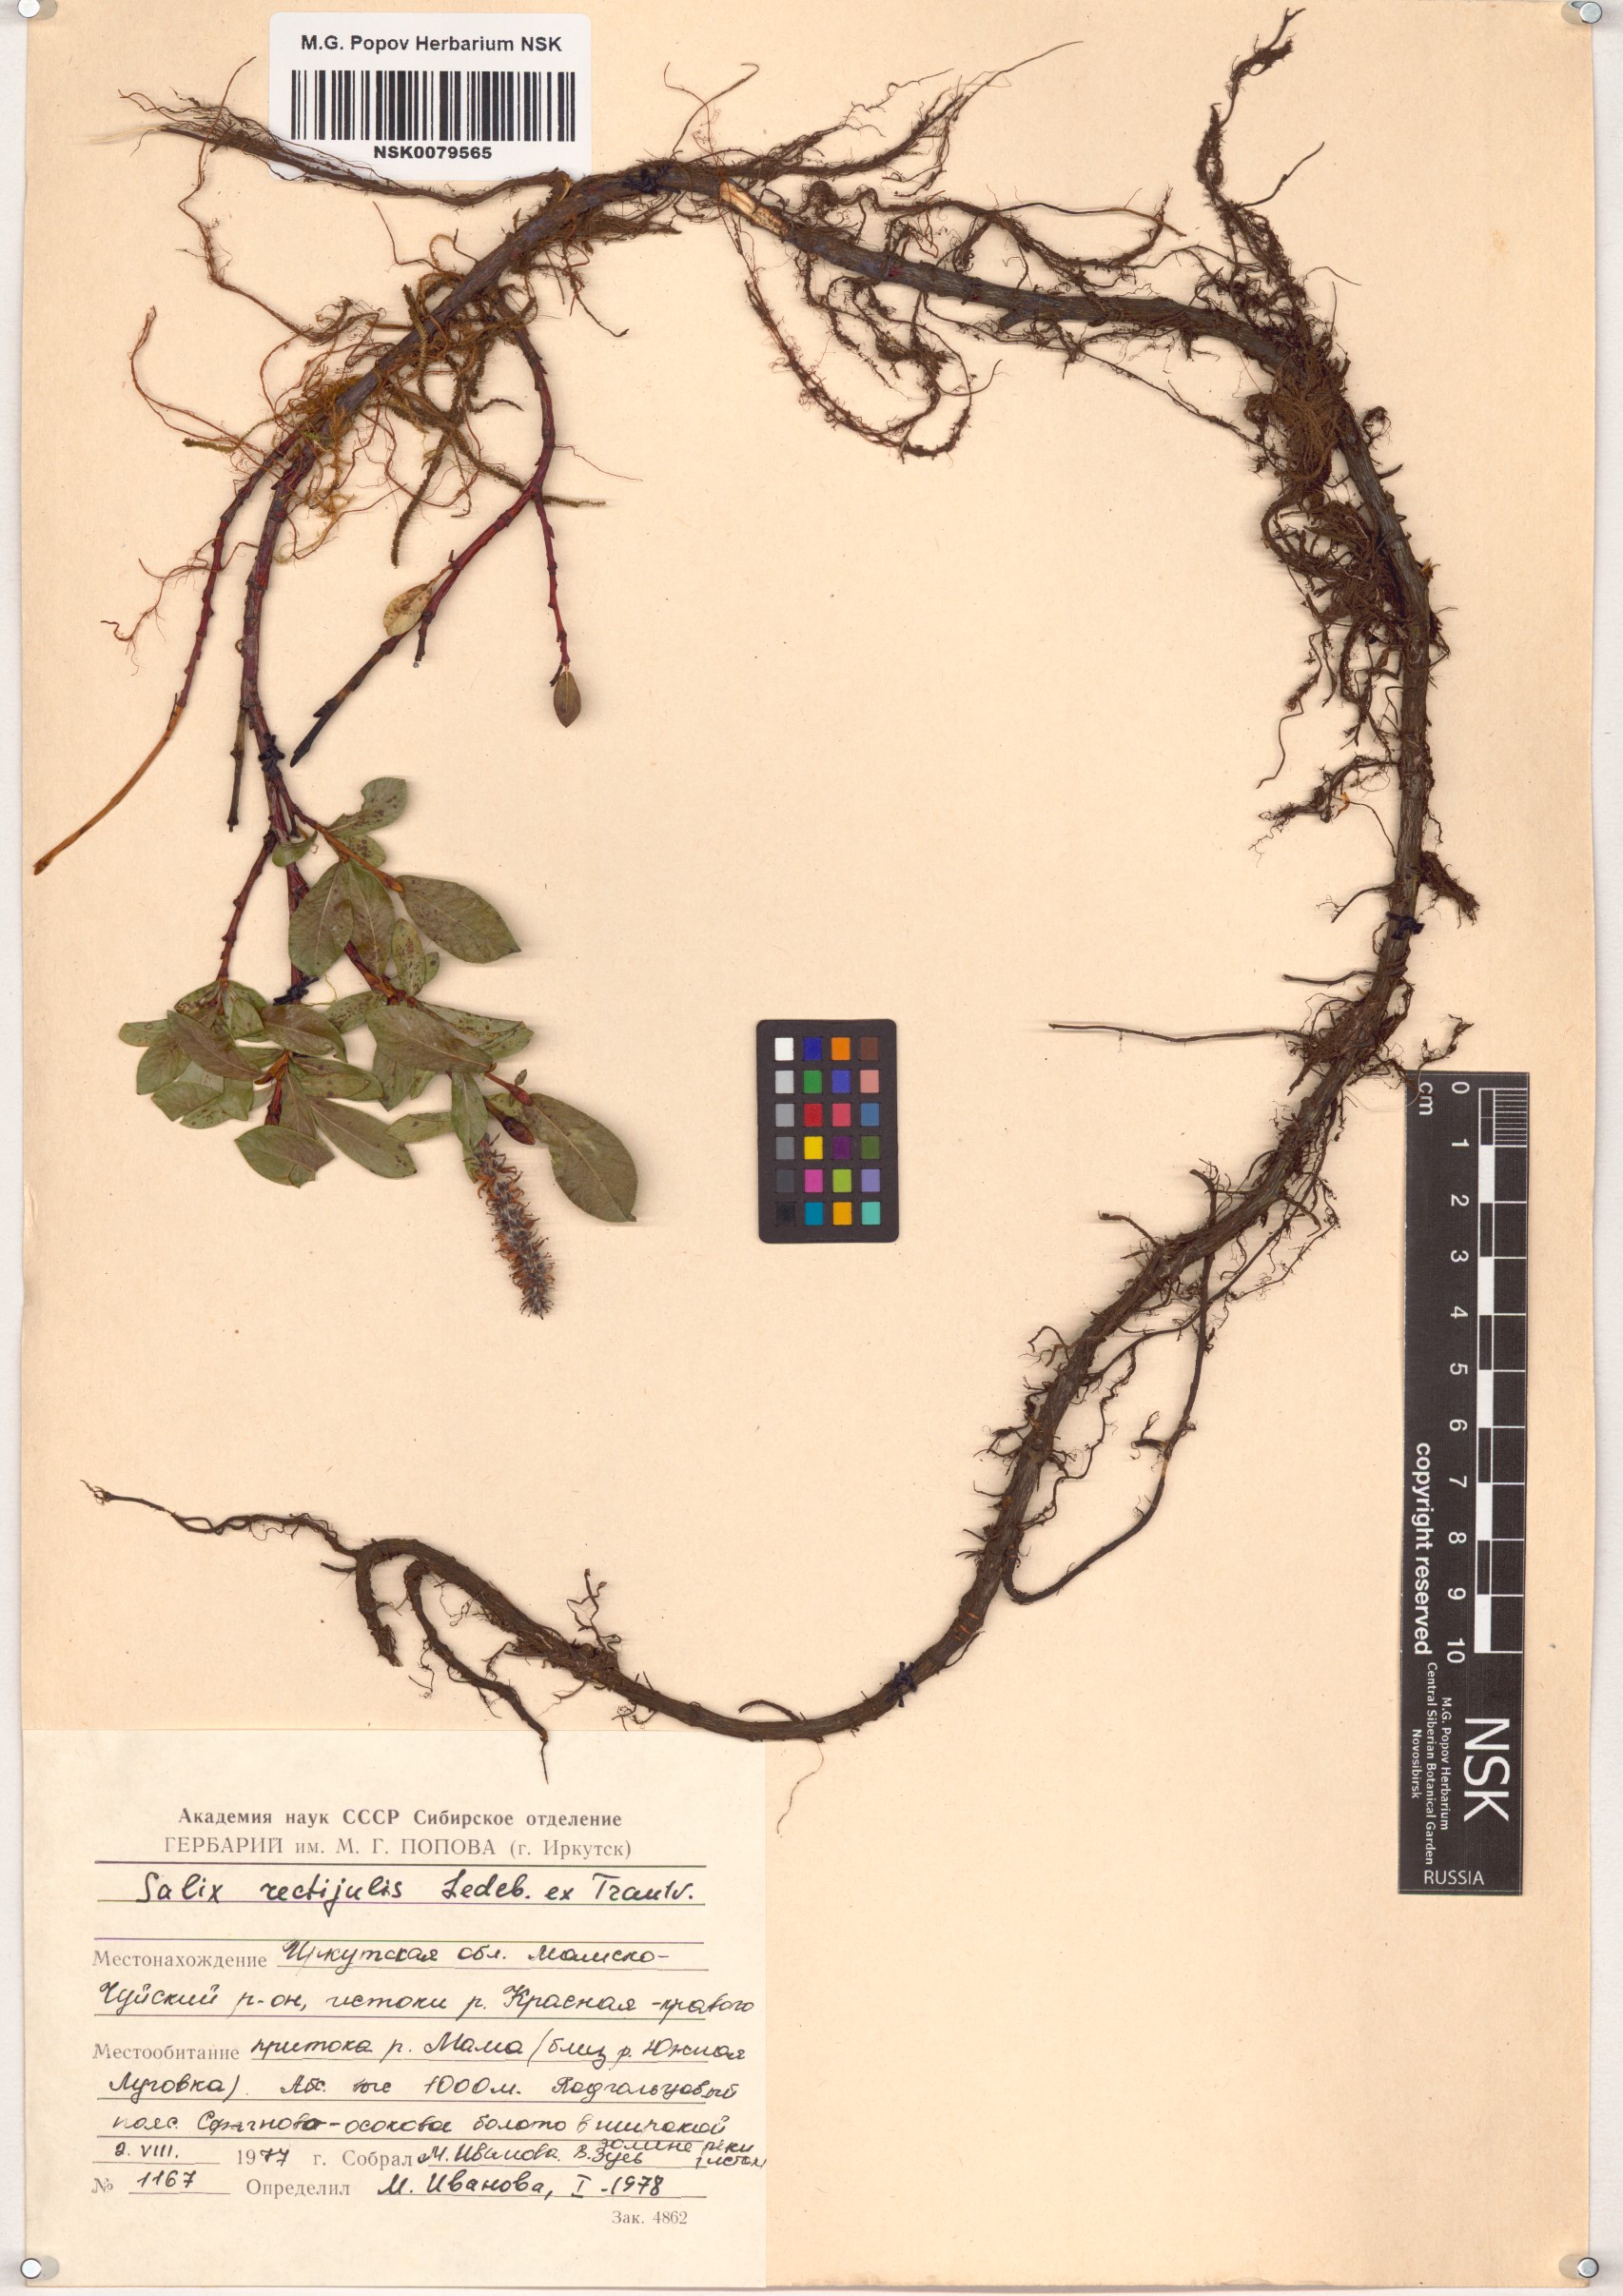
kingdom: Plantae
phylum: Tracheophyta
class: Magnoliopsida
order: Malpighiales
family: Salicaceae
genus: Salix
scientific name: Salix rectijulis
